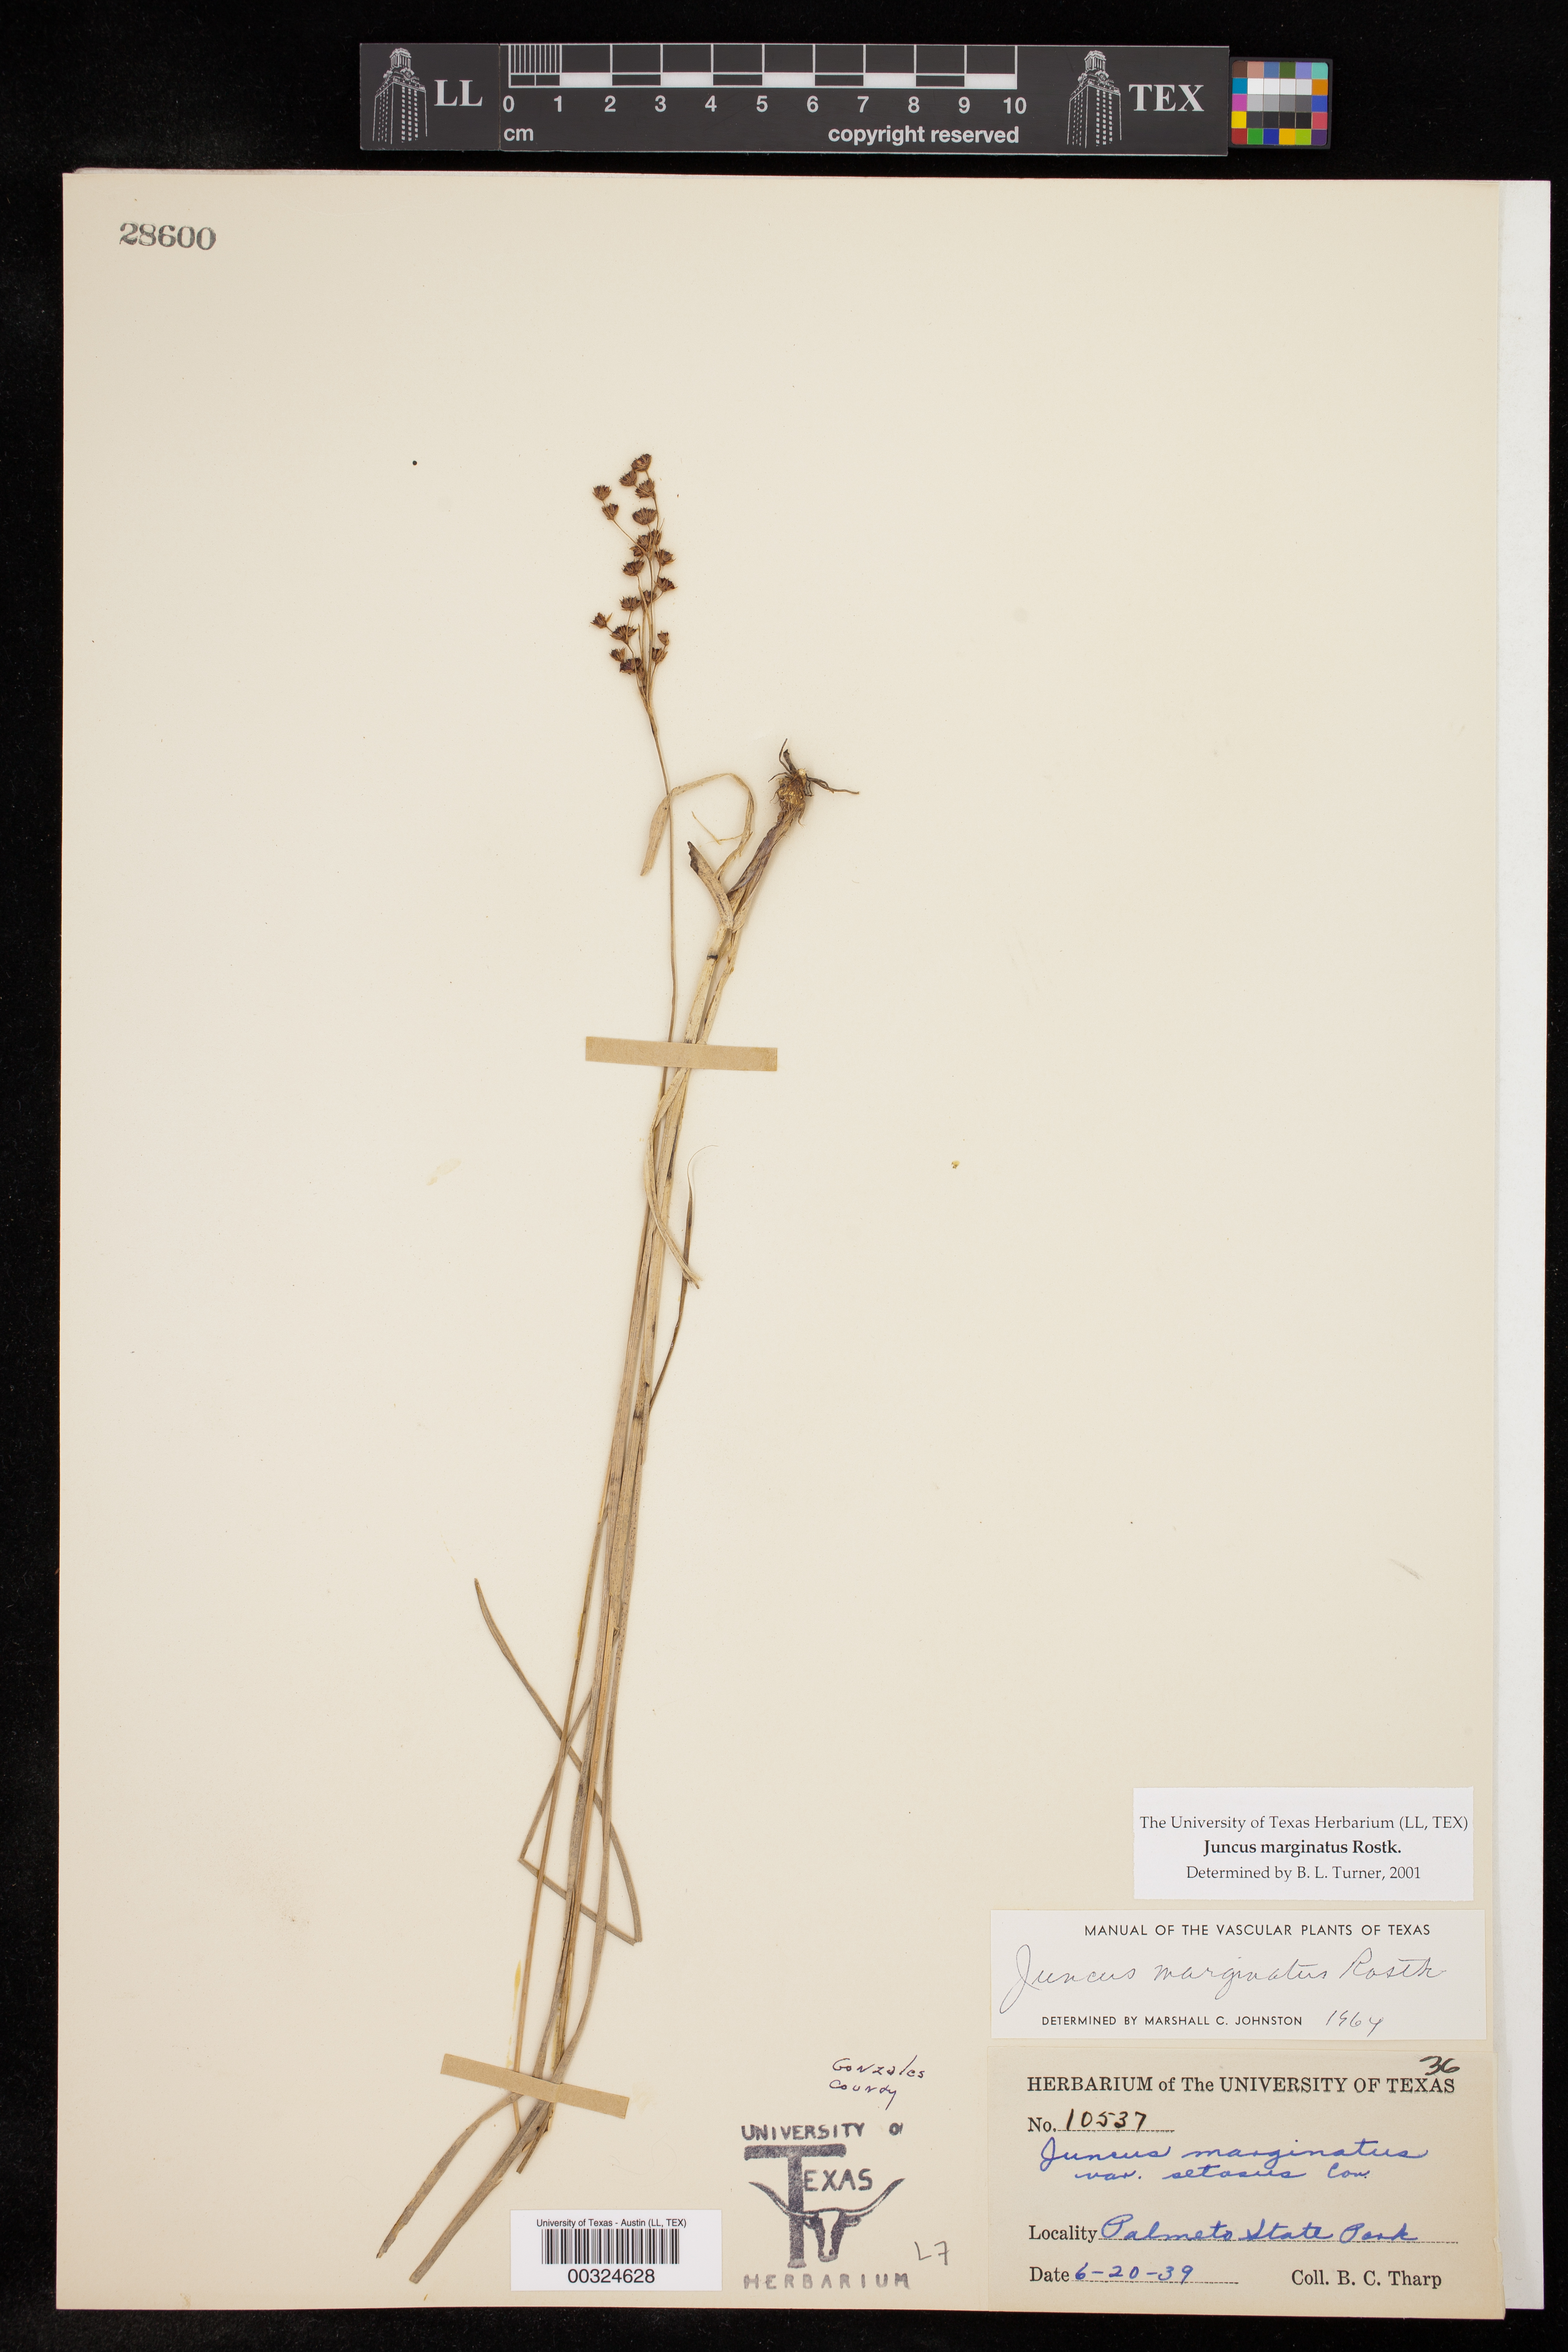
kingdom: Plantae
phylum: Tracheophyta
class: Liliopsida
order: Poales
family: Juncaceae
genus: Juncus
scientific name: Juncus marginatus
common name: Grass-leaf rush
